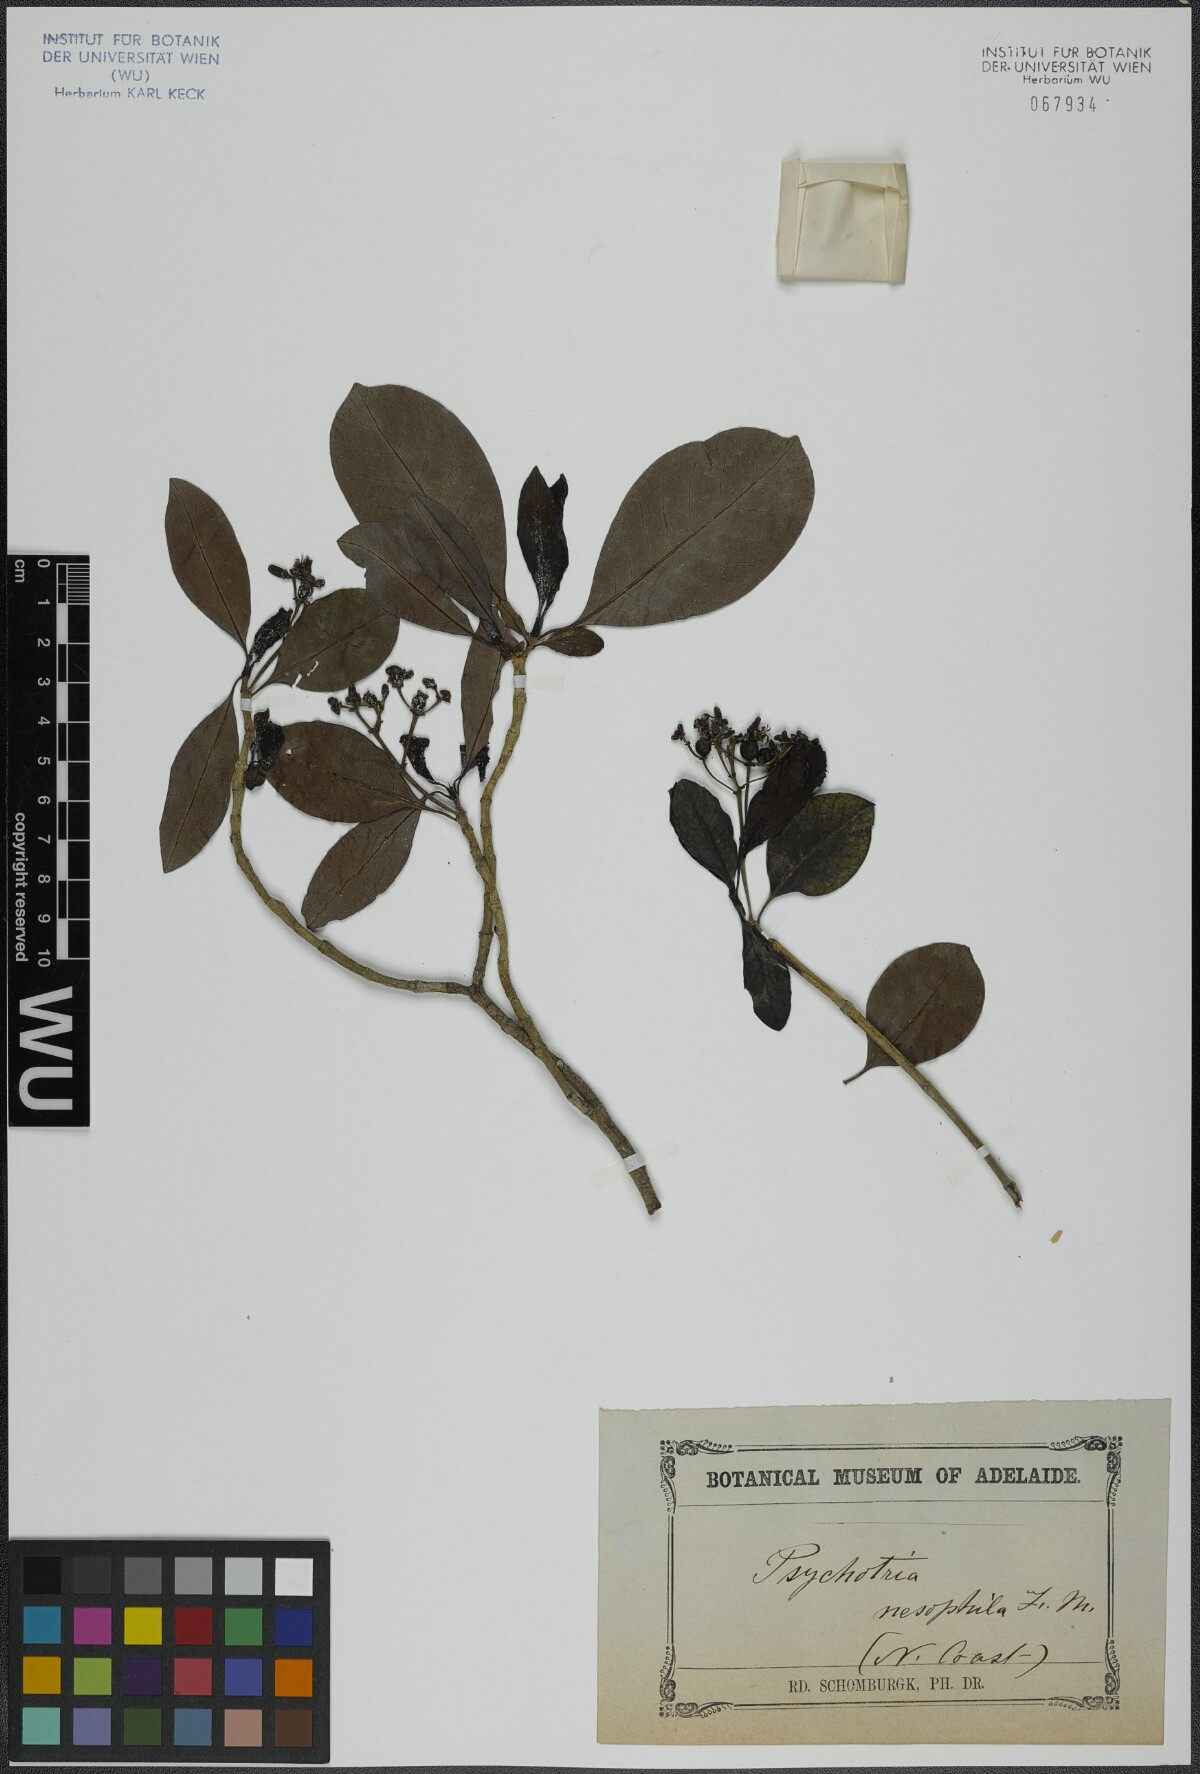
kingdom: Plantae
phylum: Tracheophyta
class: Magnoliopsida
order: Gentianales
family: Rubiaceae
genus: Psychotria
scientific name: Psychotria nesophila
